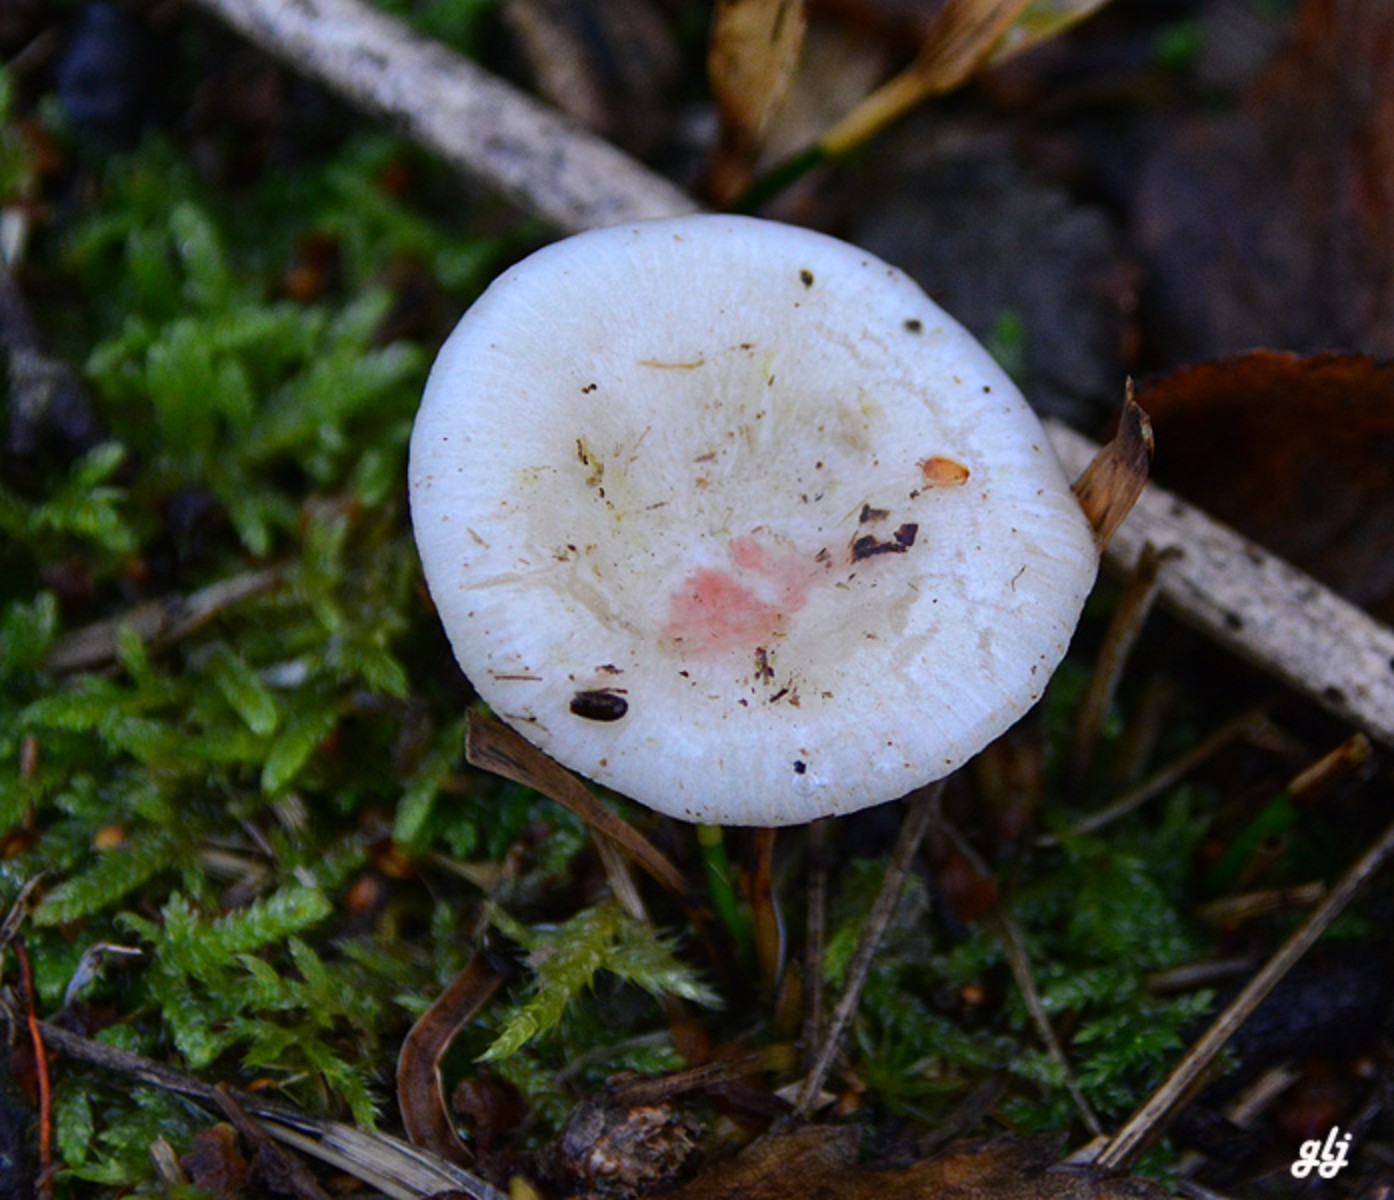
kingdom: Fungi
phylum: Basidiomycota
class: Agaricomycetes
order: Russulales
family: Russulaceae
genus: Russula
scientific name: Russula
